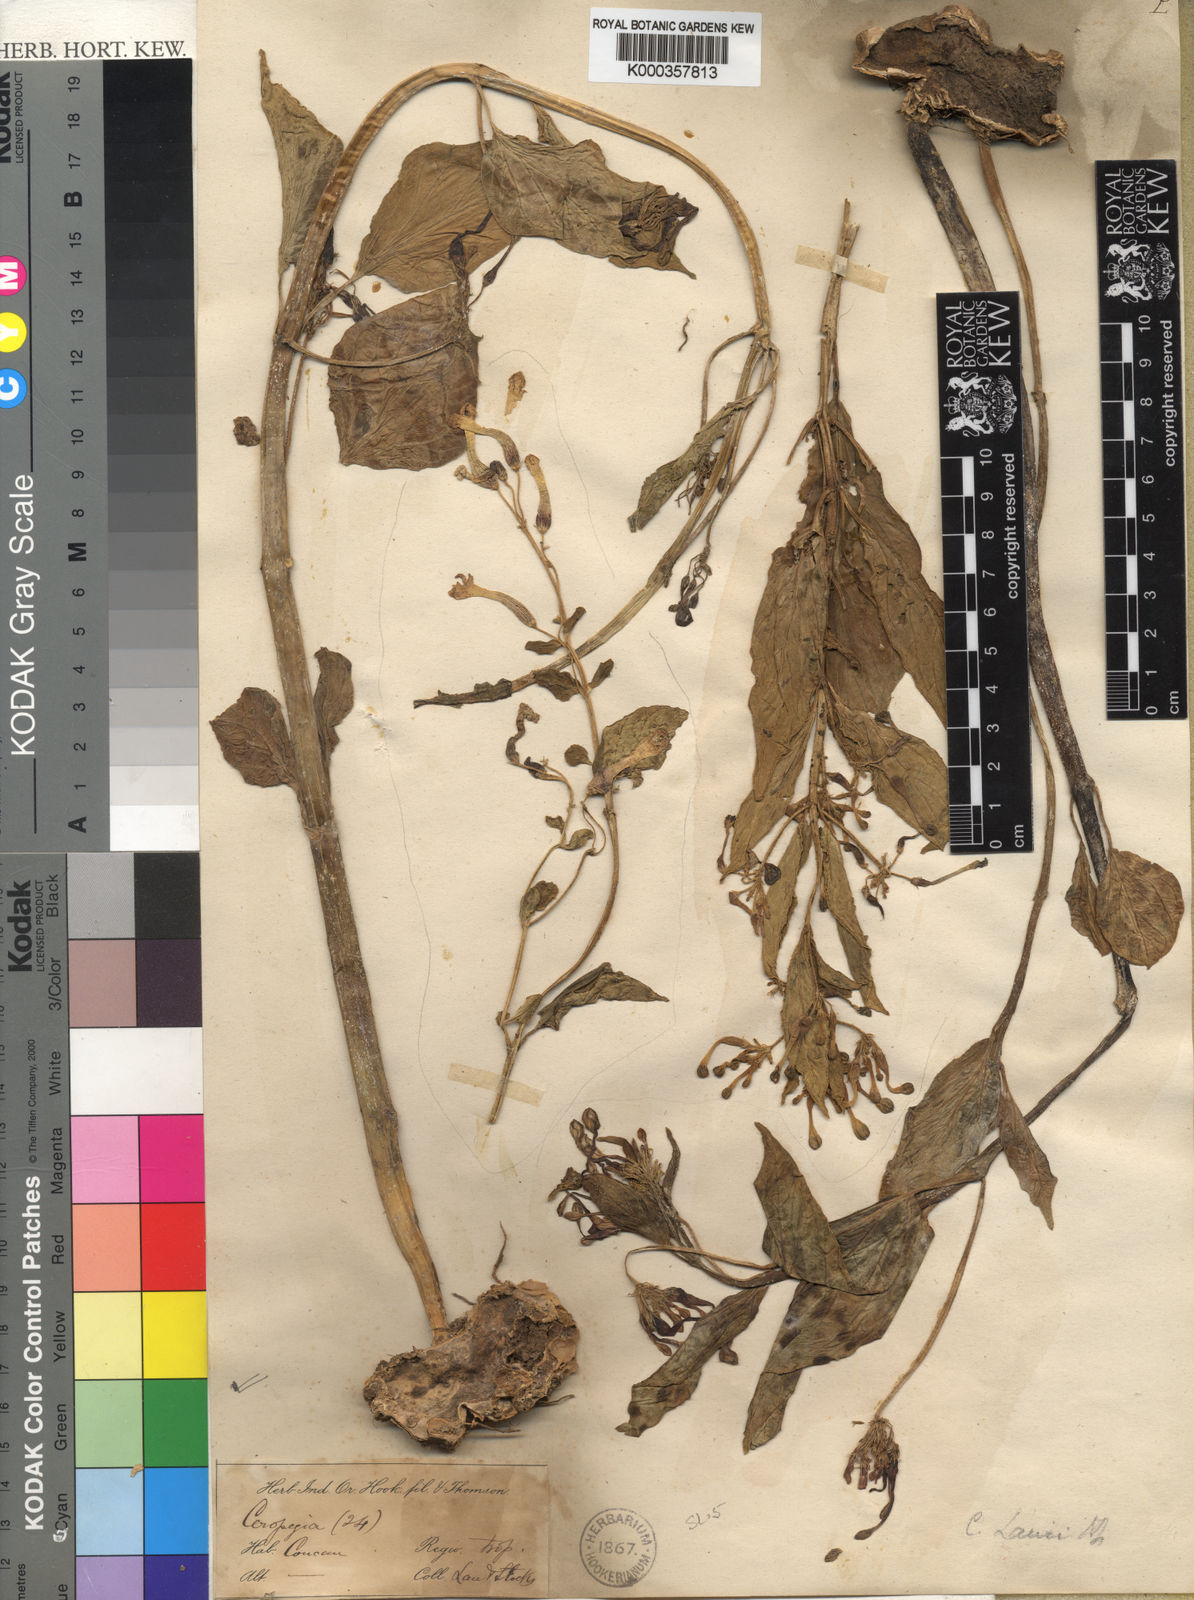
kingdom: Plantae
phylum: Tracheophyta
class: Magnoliopsida
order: Gentianales
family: Apocynaceae
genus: Ceropegia
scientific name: Ceropegia lawii
